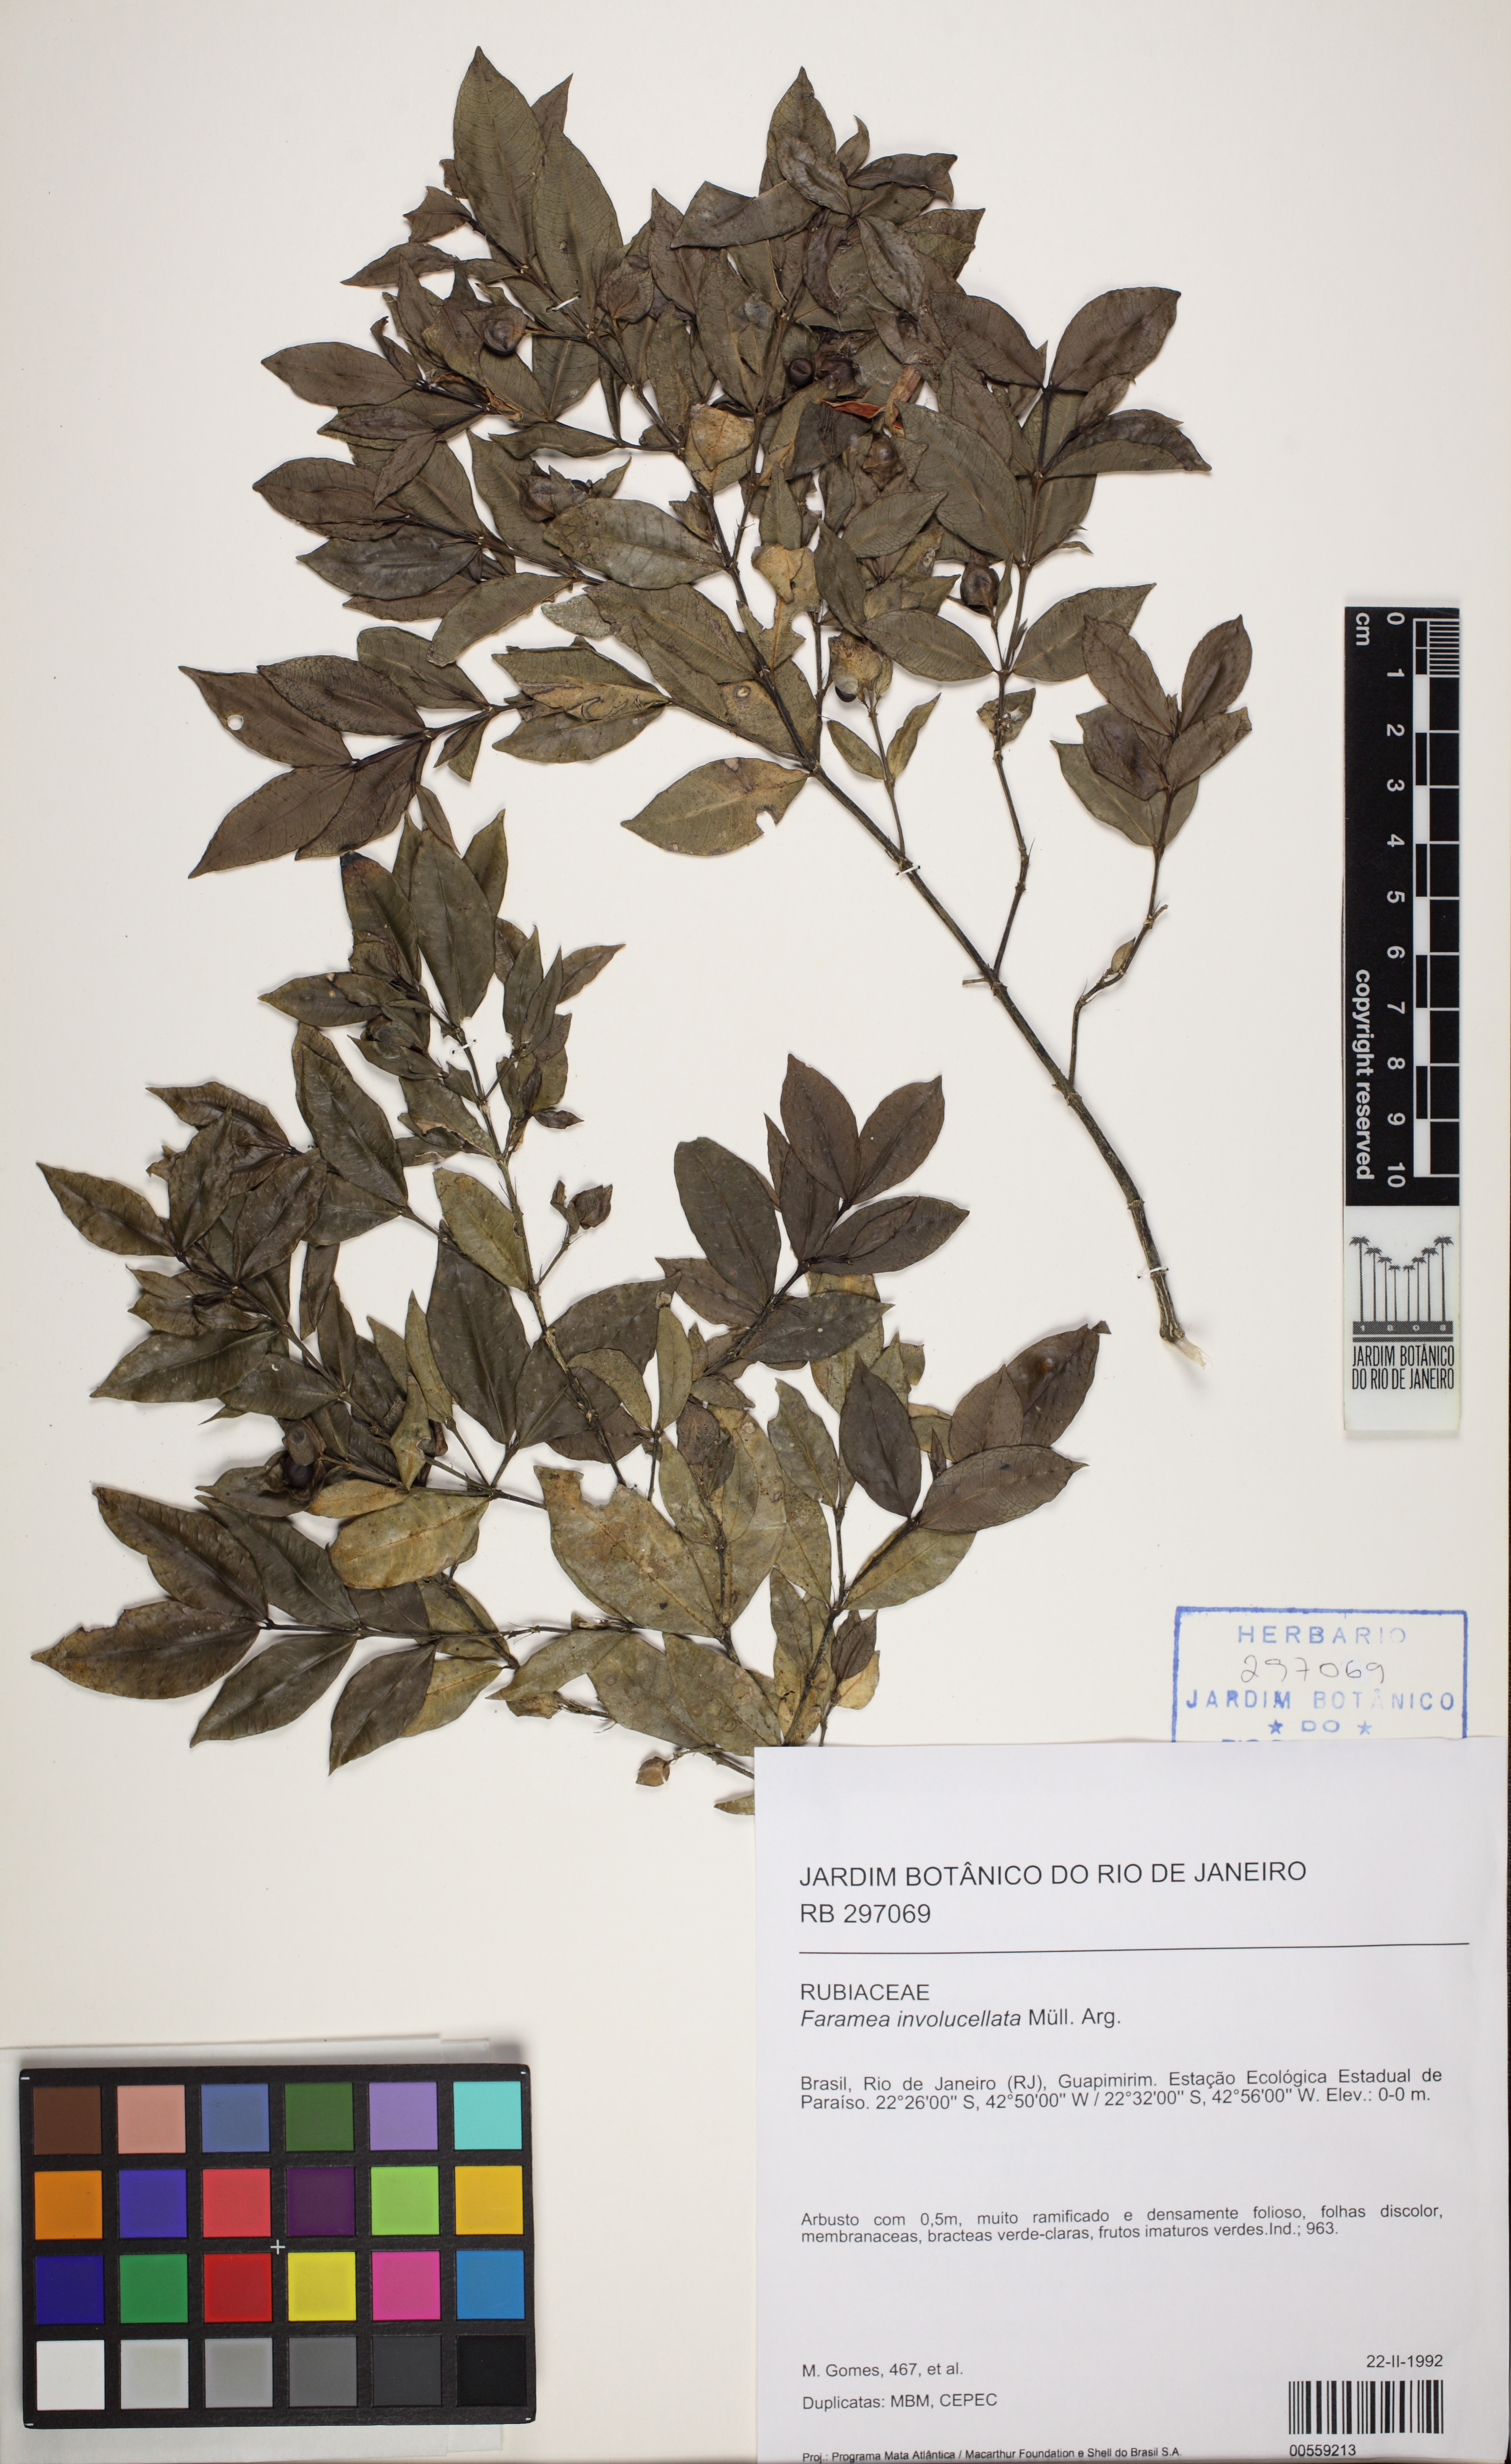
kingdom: Plantae
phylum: Tracheophyta
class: Magnoliopsida
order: Gentianales
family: Rubiaceae
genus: Faramea
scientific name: Faramea involucellata
